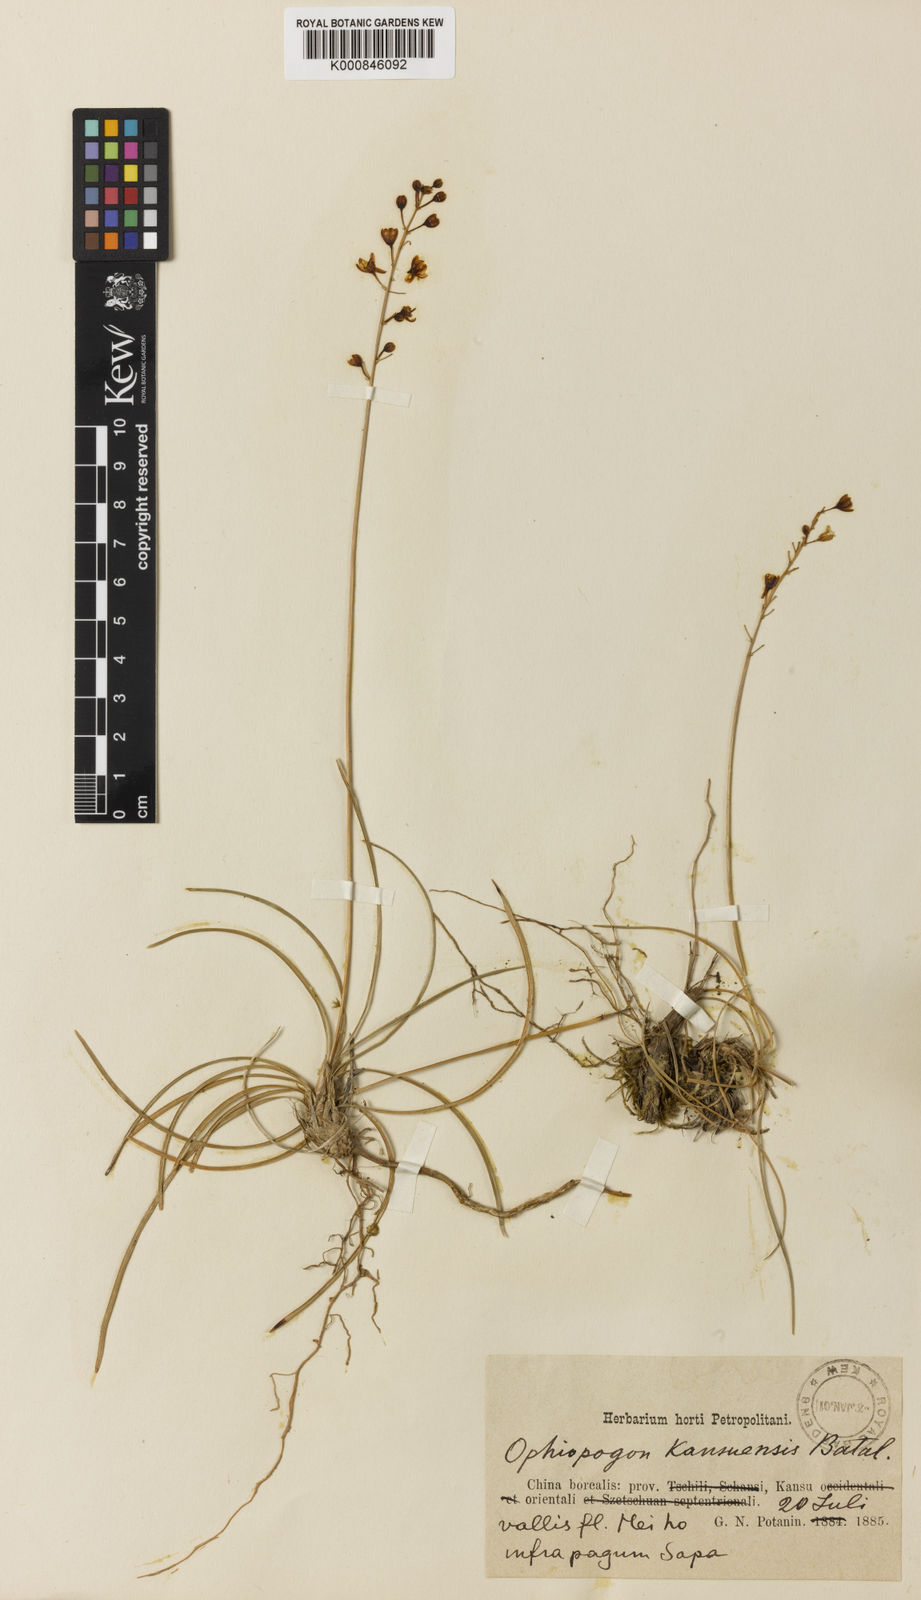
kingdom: Plantae
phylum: Tracheophyta
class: Liliopsida
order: Asparagales
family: Asparagaceae
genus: Liriope
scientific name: Liriope kansuensis
